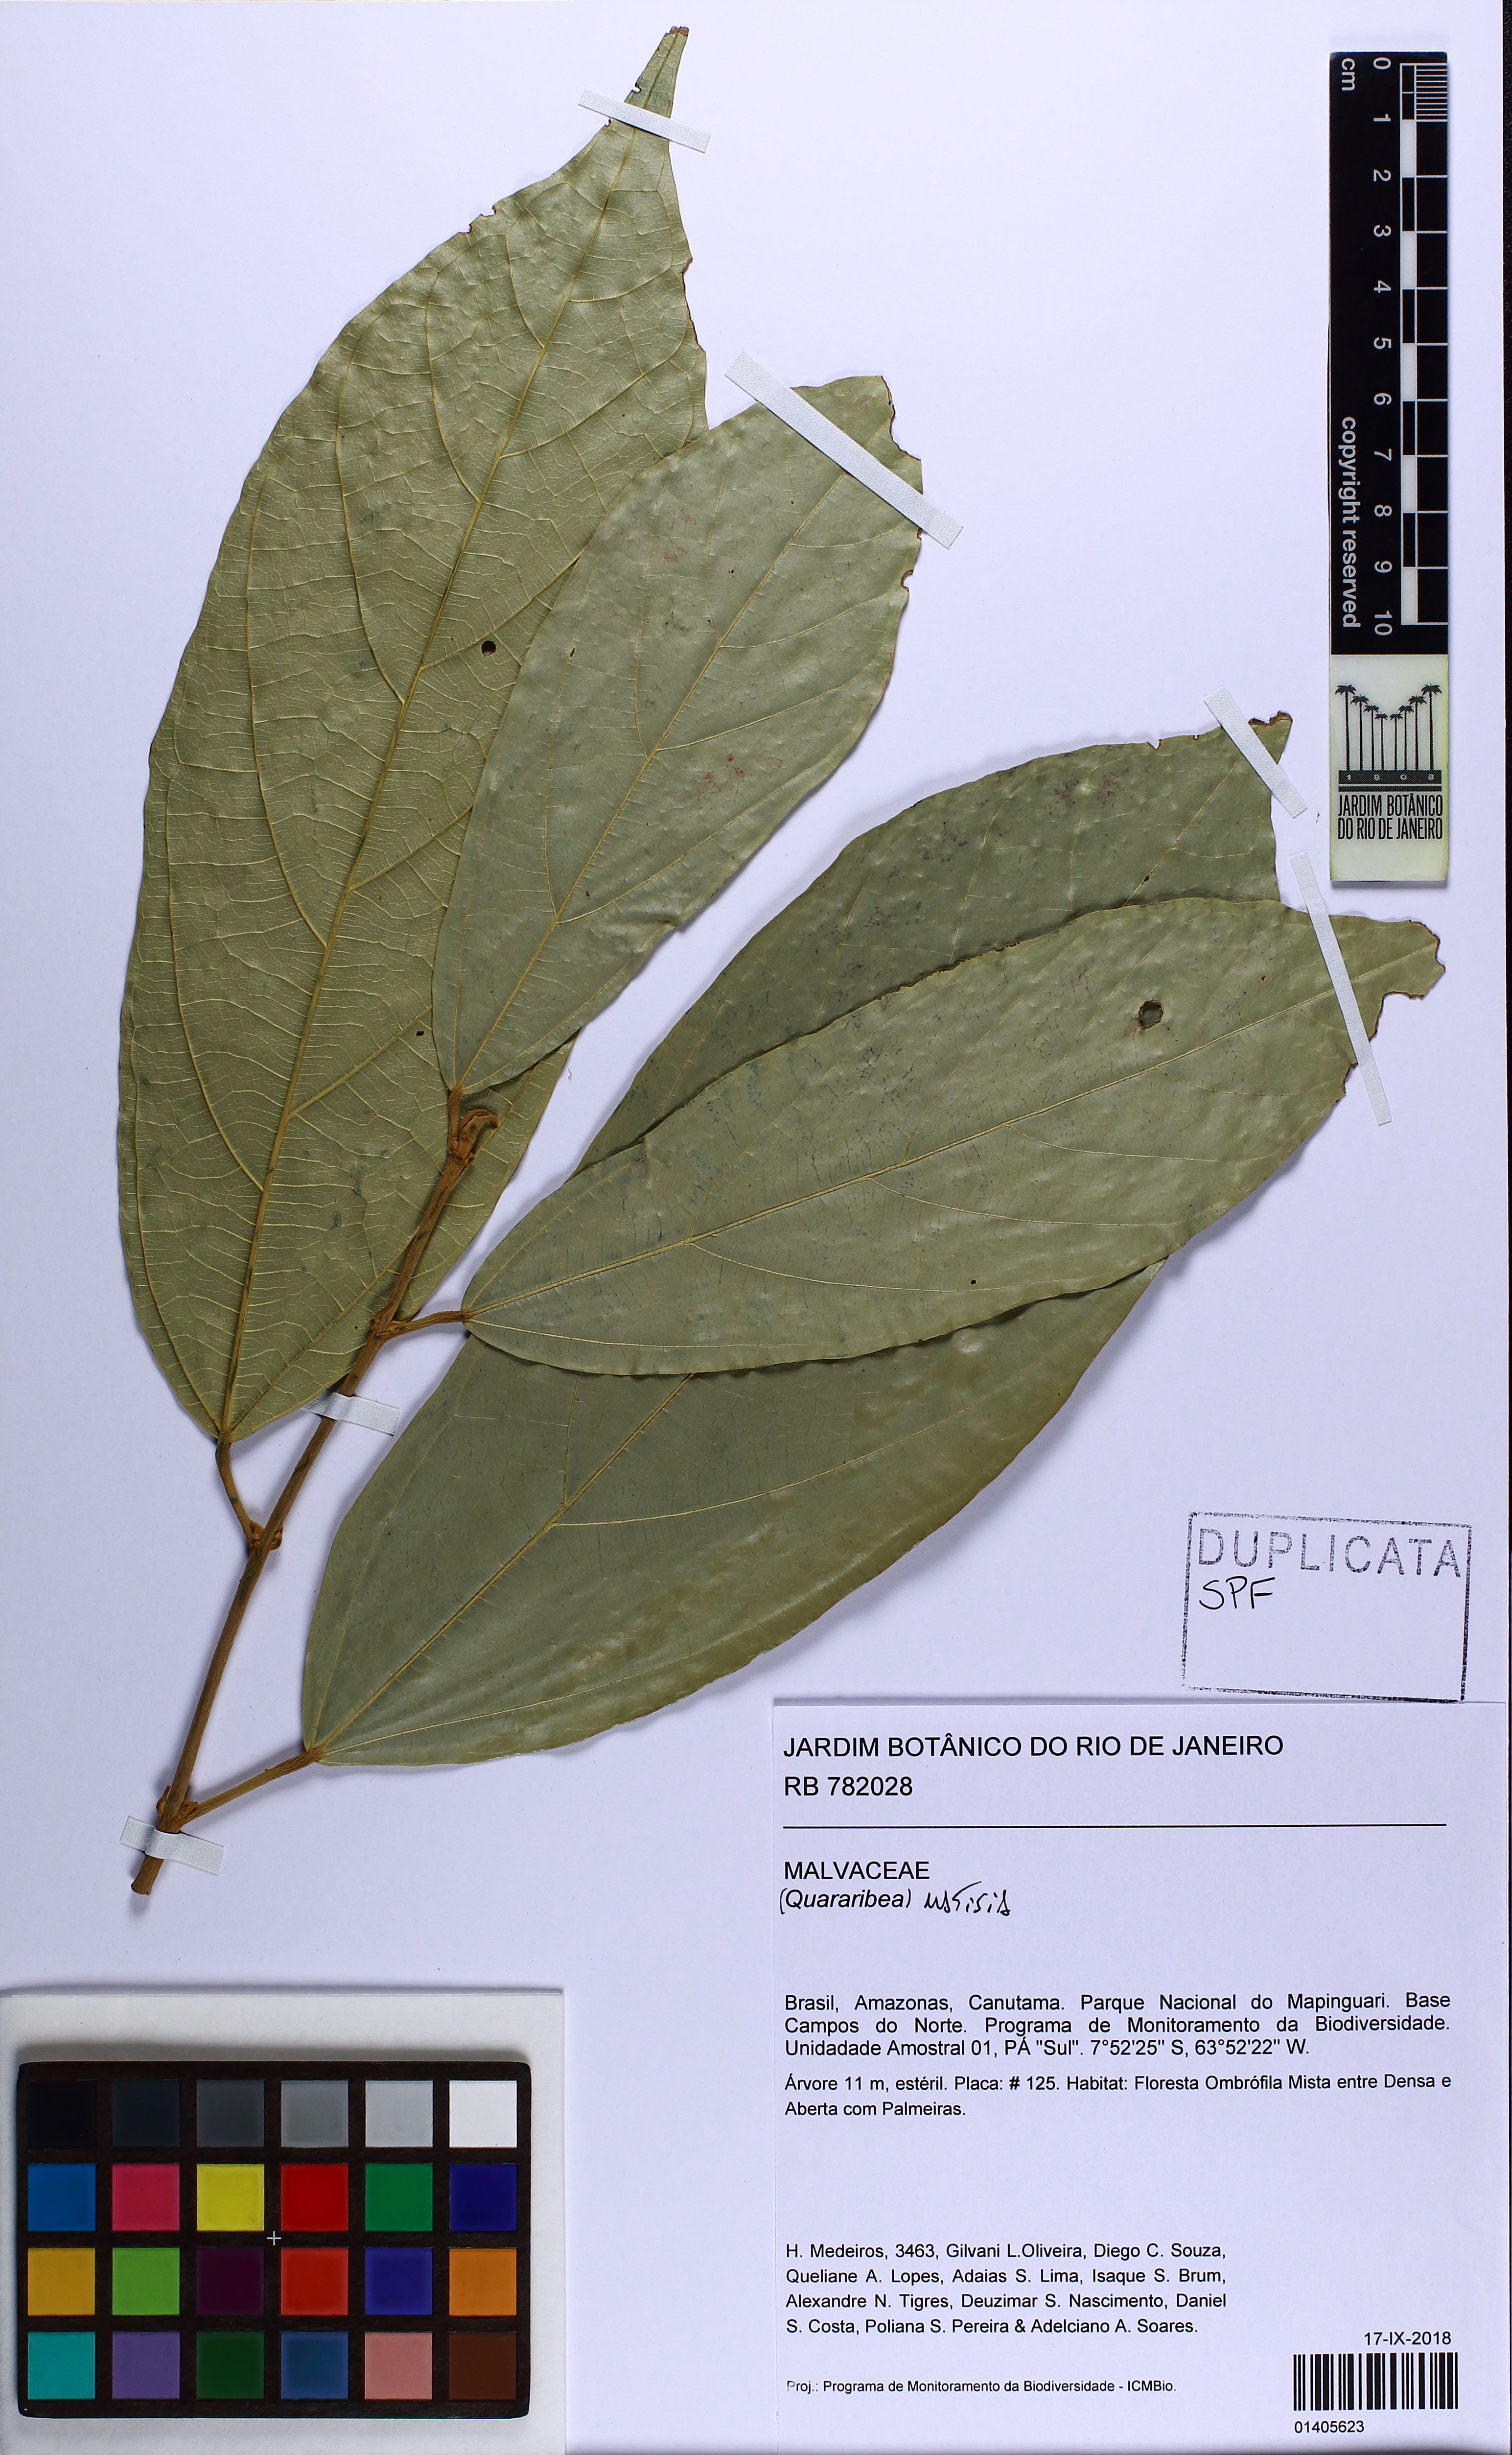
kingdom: Plantae
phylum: Tracheophyta
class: Magnoliopsida
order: Malvales
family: Malvaceae
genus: Matisia
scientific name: Matisia
